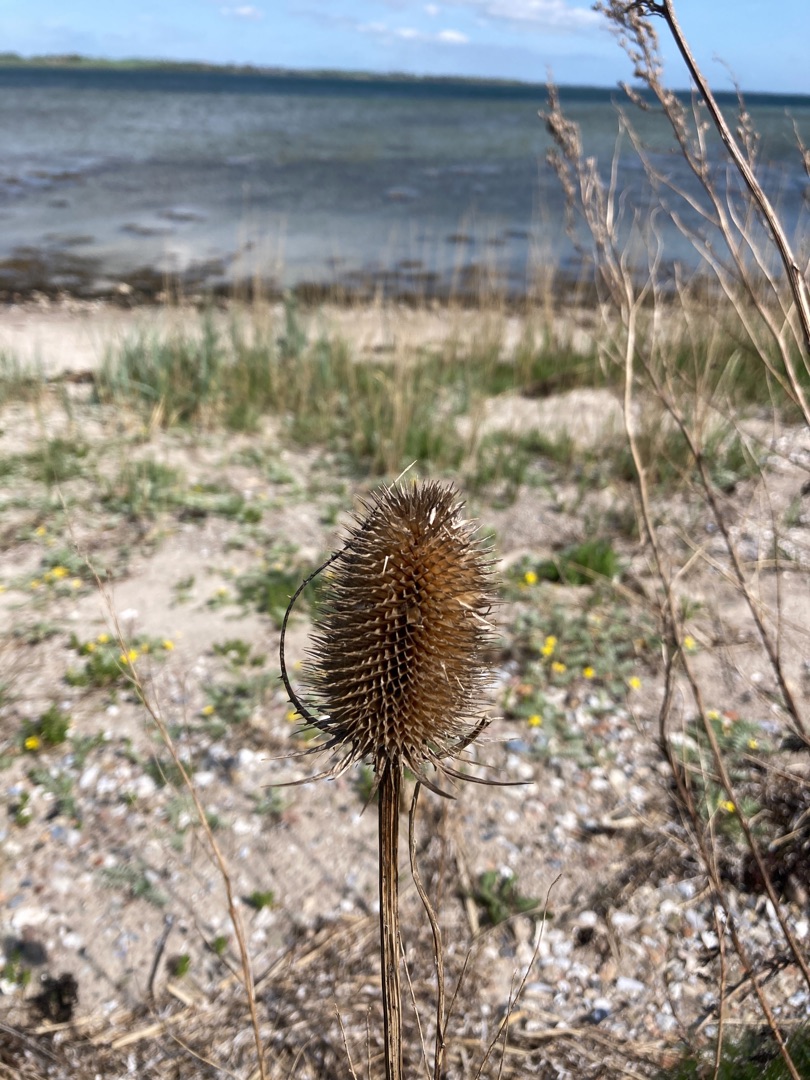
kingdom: Plantae
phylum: Tracheophyta
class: Magnoliopsida
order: Dipsacales
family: Caprifoliaceae
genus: Dipsacus
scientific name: Dipsacus fullonum
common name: Gærde-kartebolle
